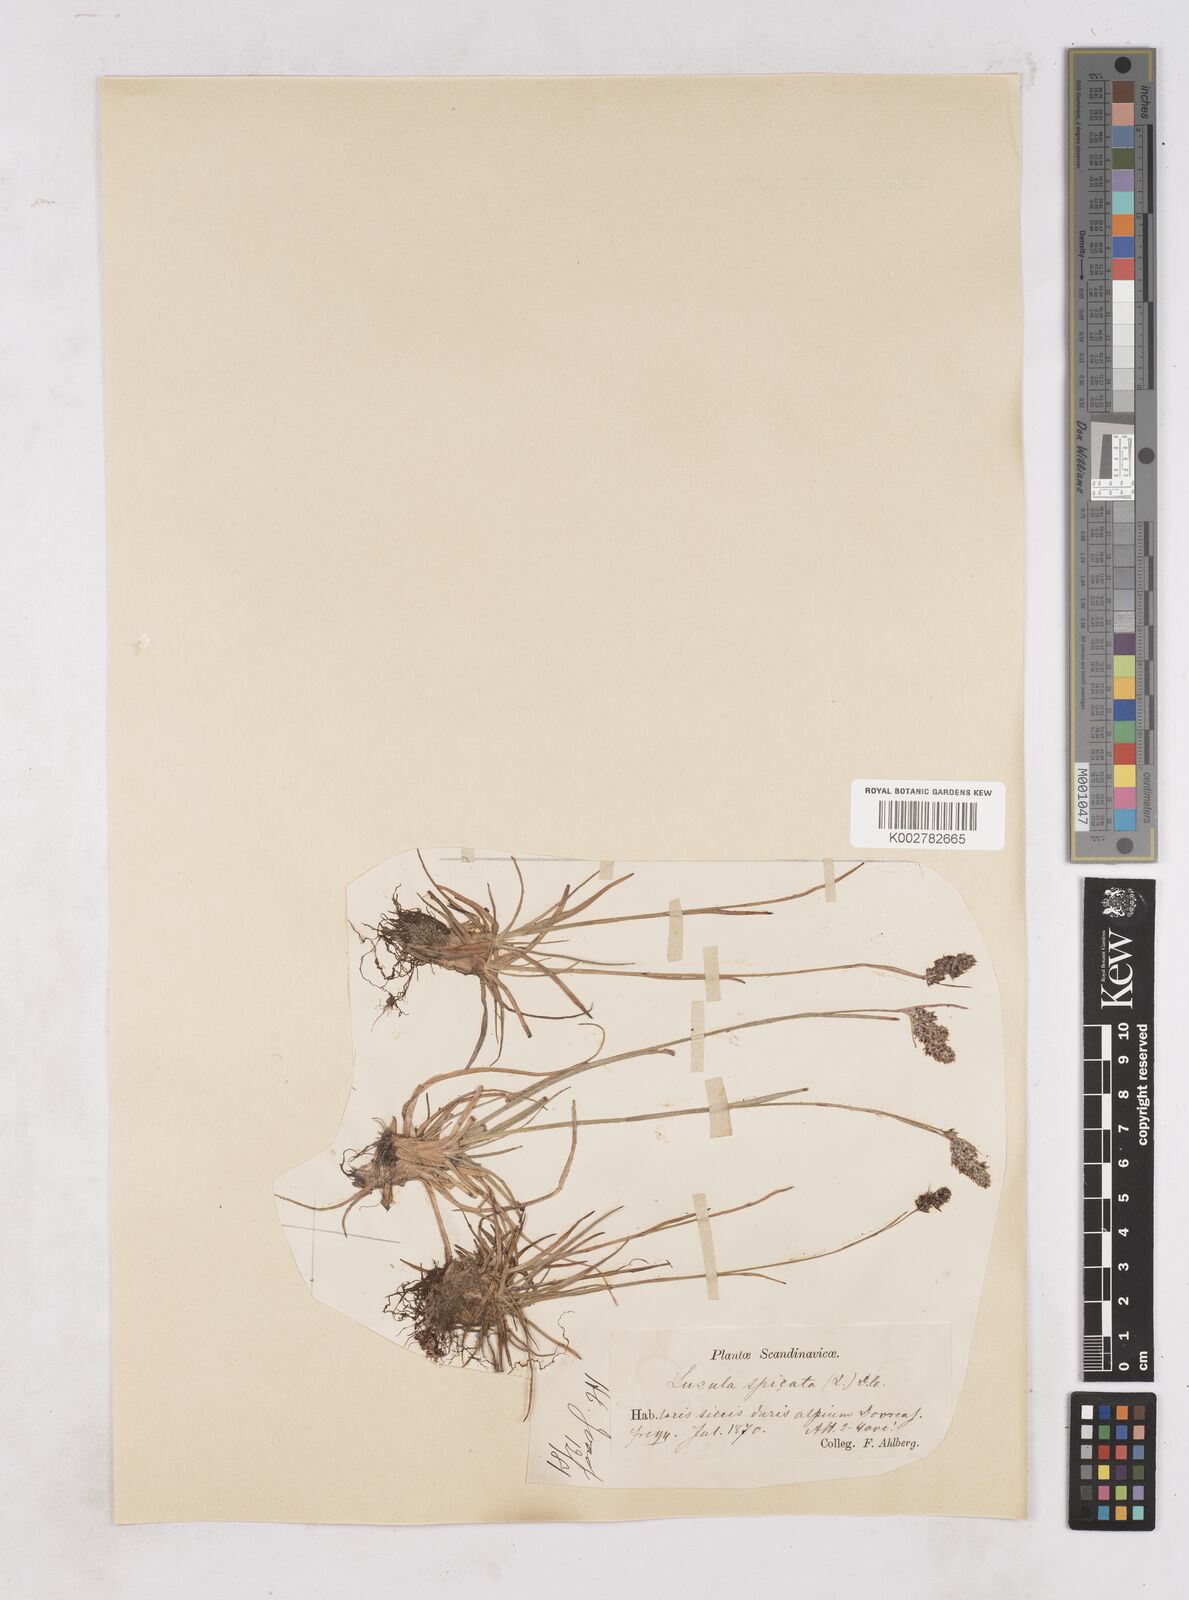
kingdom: Plantae
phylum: Tracheophyta
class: Liliopsida
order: Poales
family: Juncaceae
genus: Luzula
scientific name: Luzula spicata
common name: Spiked wood-rush
